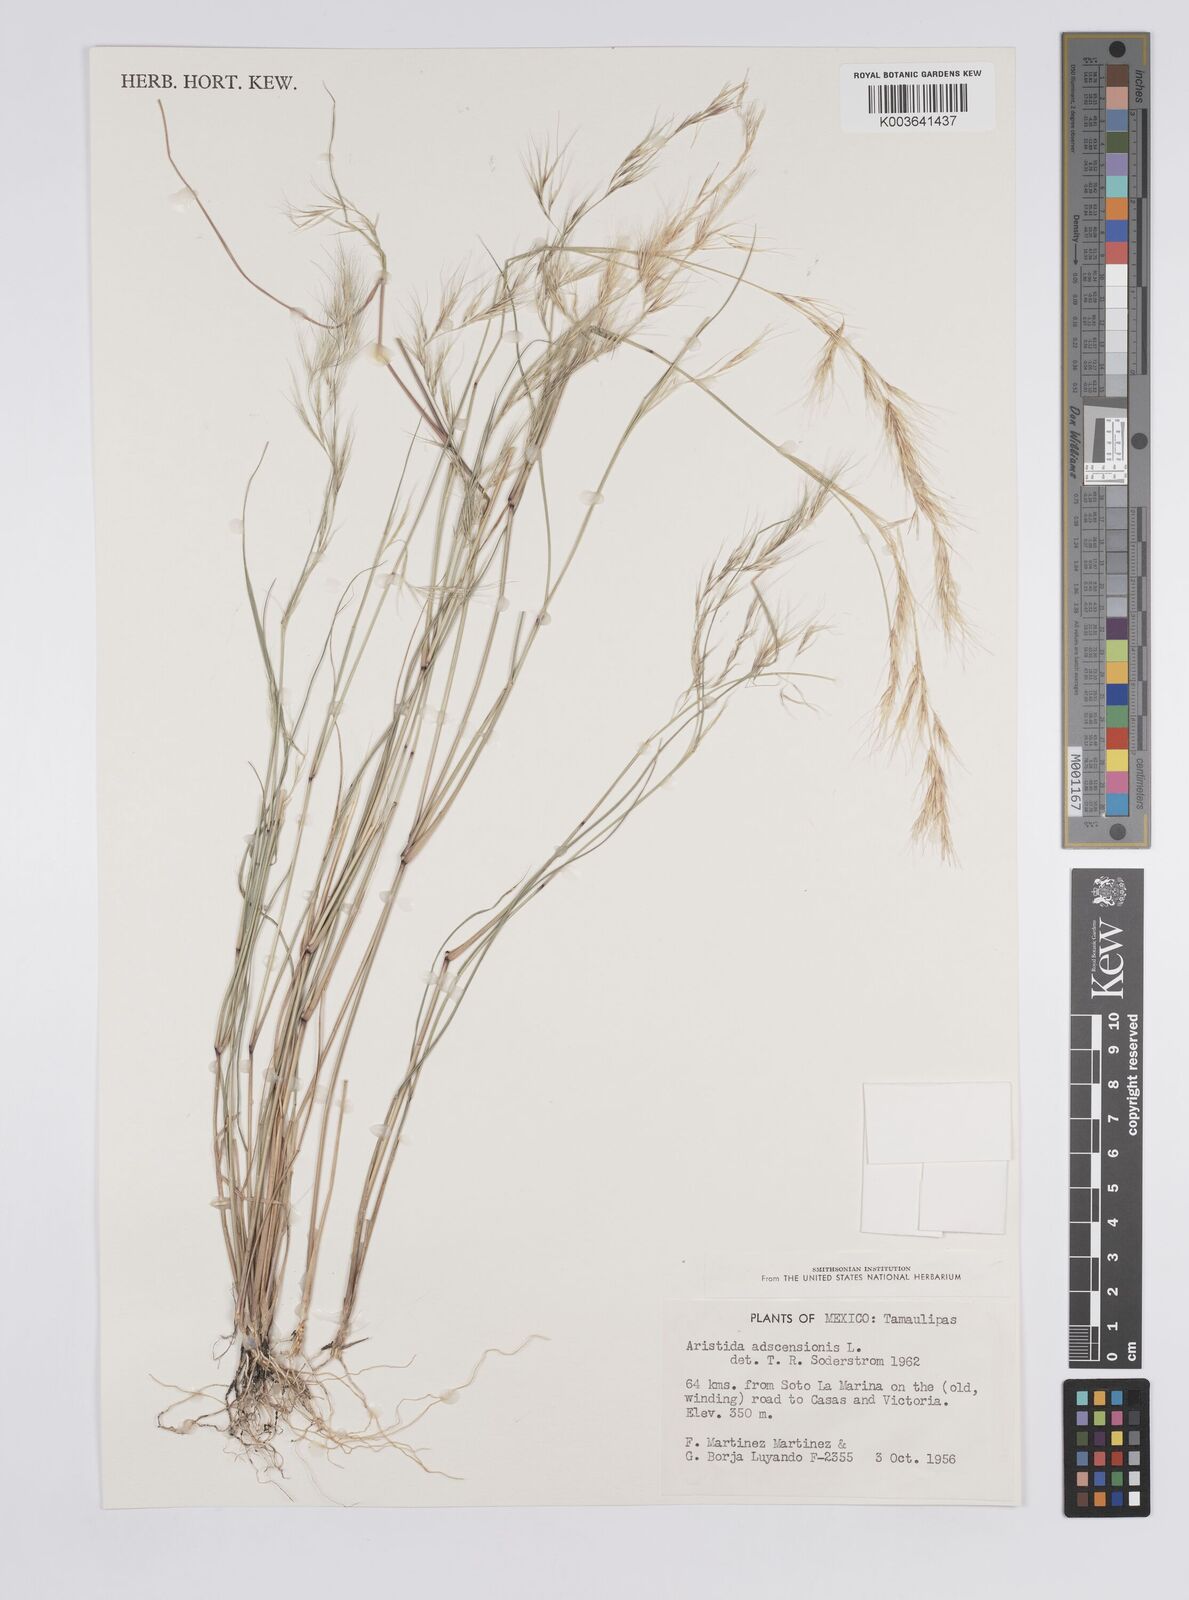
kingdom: Plantae
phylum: Tracheophyta
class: Liliopsida
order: Poales
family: Poaceae
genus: Aristida
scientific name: Aristida adscensionis
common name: Sixweeks threeawn
